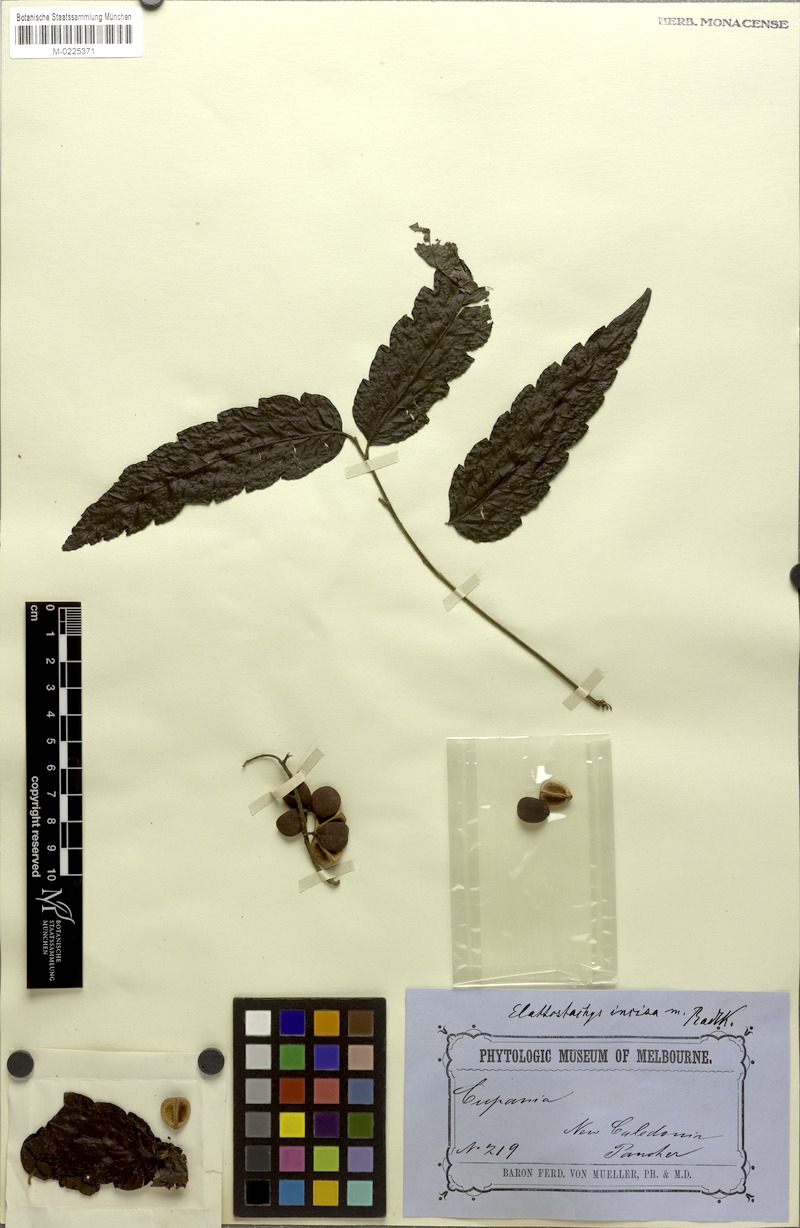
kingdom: Plantae
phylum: Tracheophyta
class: Magnoliopsida
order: Sapindales
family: Sapindaceae
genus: Elattostachys
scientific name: Elattostachys incisa
